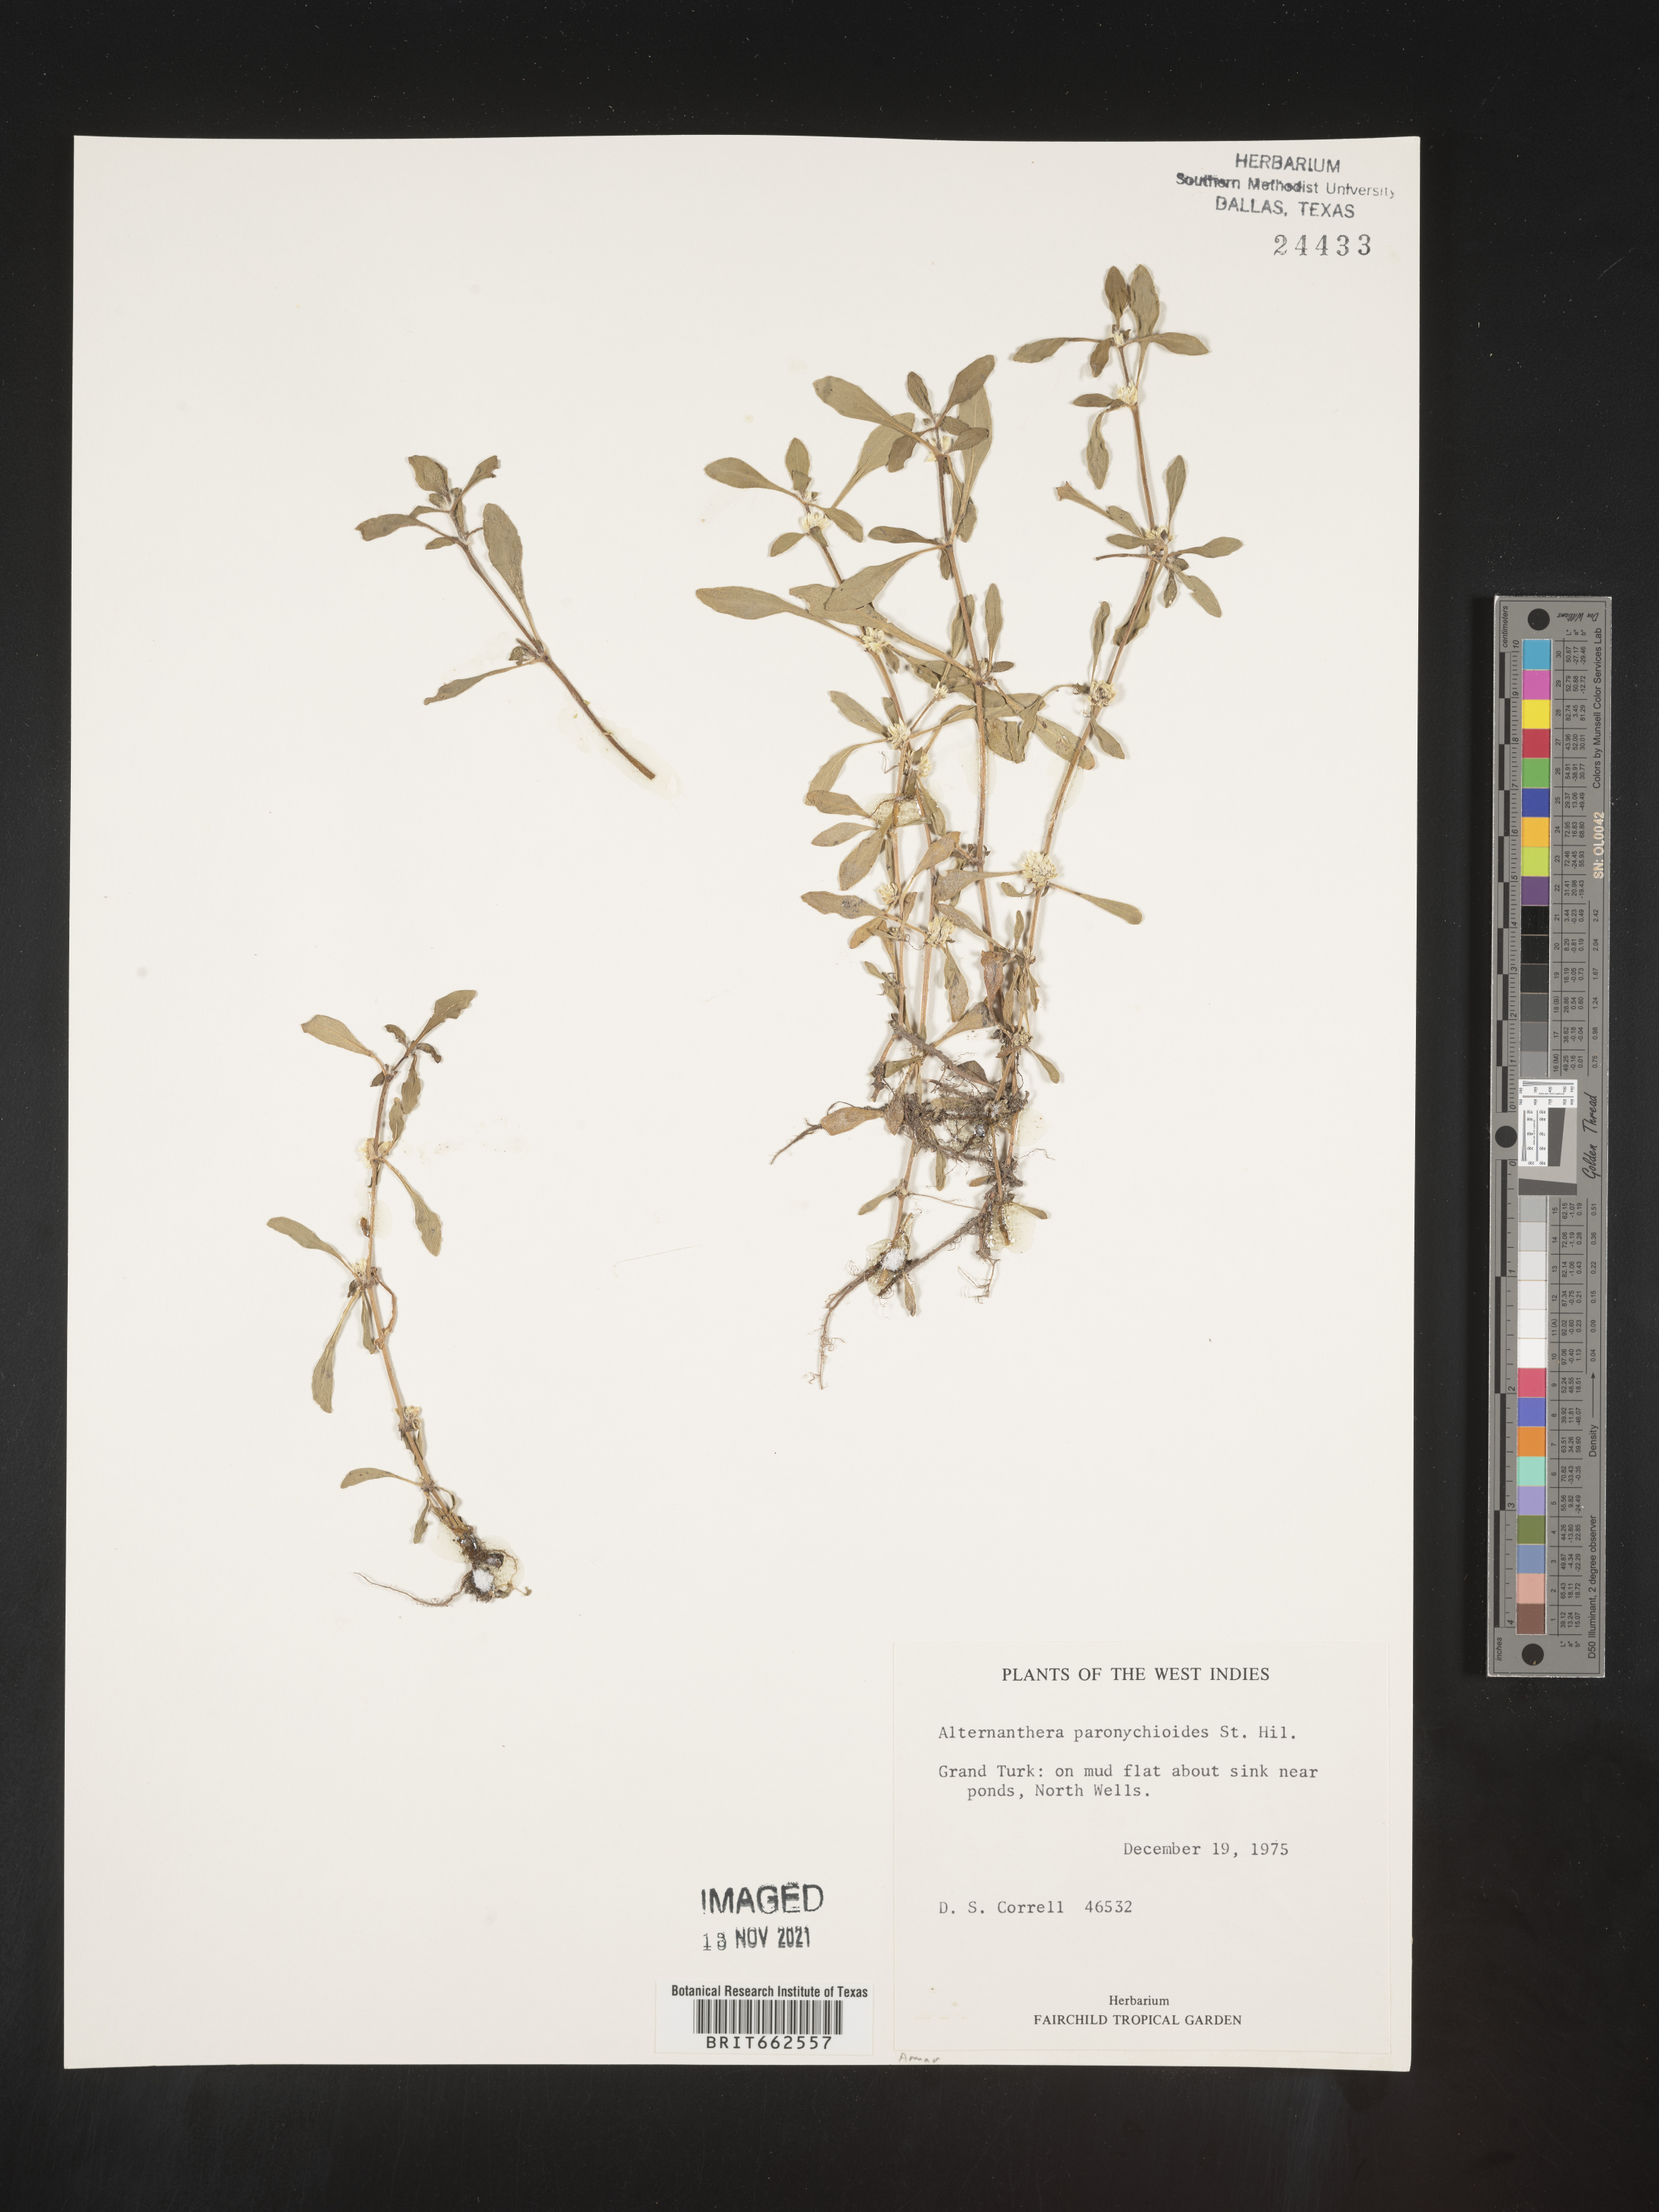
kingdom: Plantae
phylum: Tracheophyta
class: Magnoliopsida
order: Caryophyllales
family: Amaranthaceae
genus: Alternanthera
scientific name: Alternanthera
